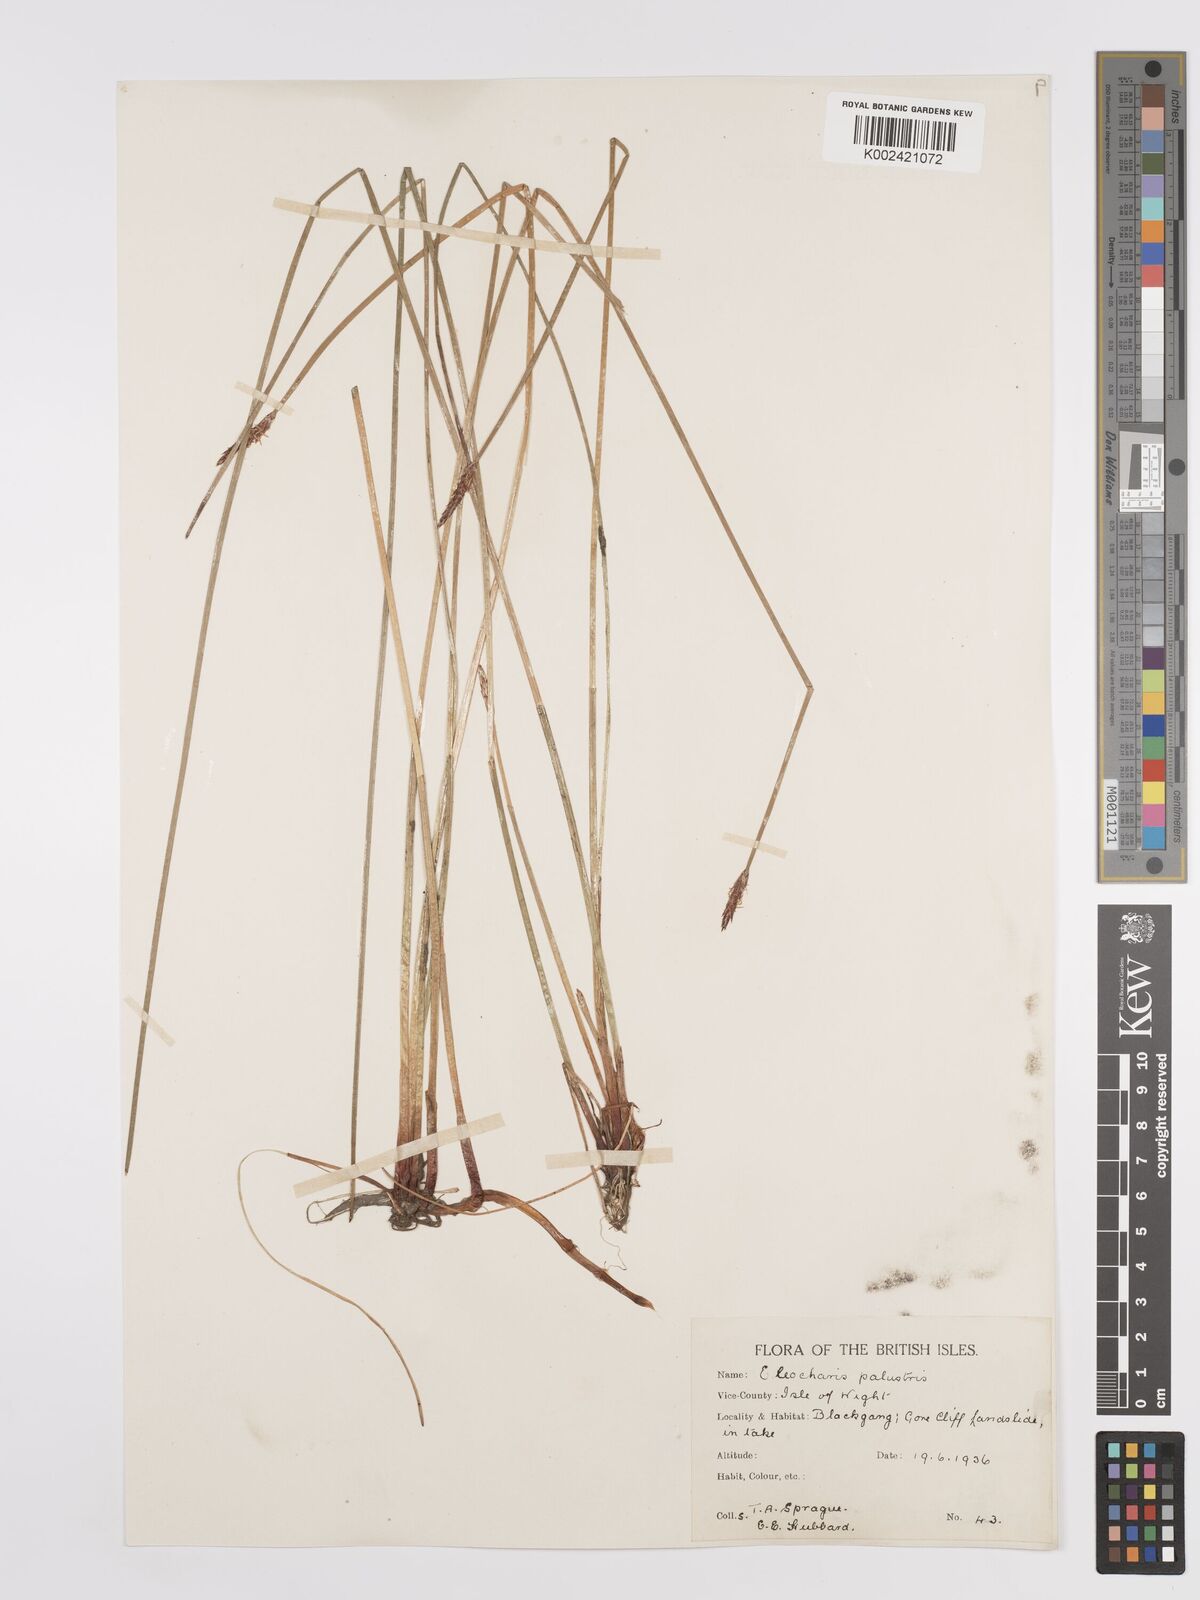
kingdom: Plantae
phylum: Tracheophyta
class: Liliopsida
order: Poales
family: Cyperaceae
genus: Eleocharis
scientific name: Eleocharis palustris
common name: Common spike-rush
